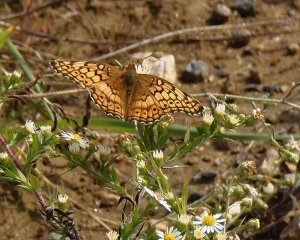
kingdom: Animalia
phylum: Arthropoda
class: Insecta
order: Lepidoptera
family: Nymphalidae
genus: Euptoieta
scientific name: Euptoieta claudia
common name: Variegated Fritillary
